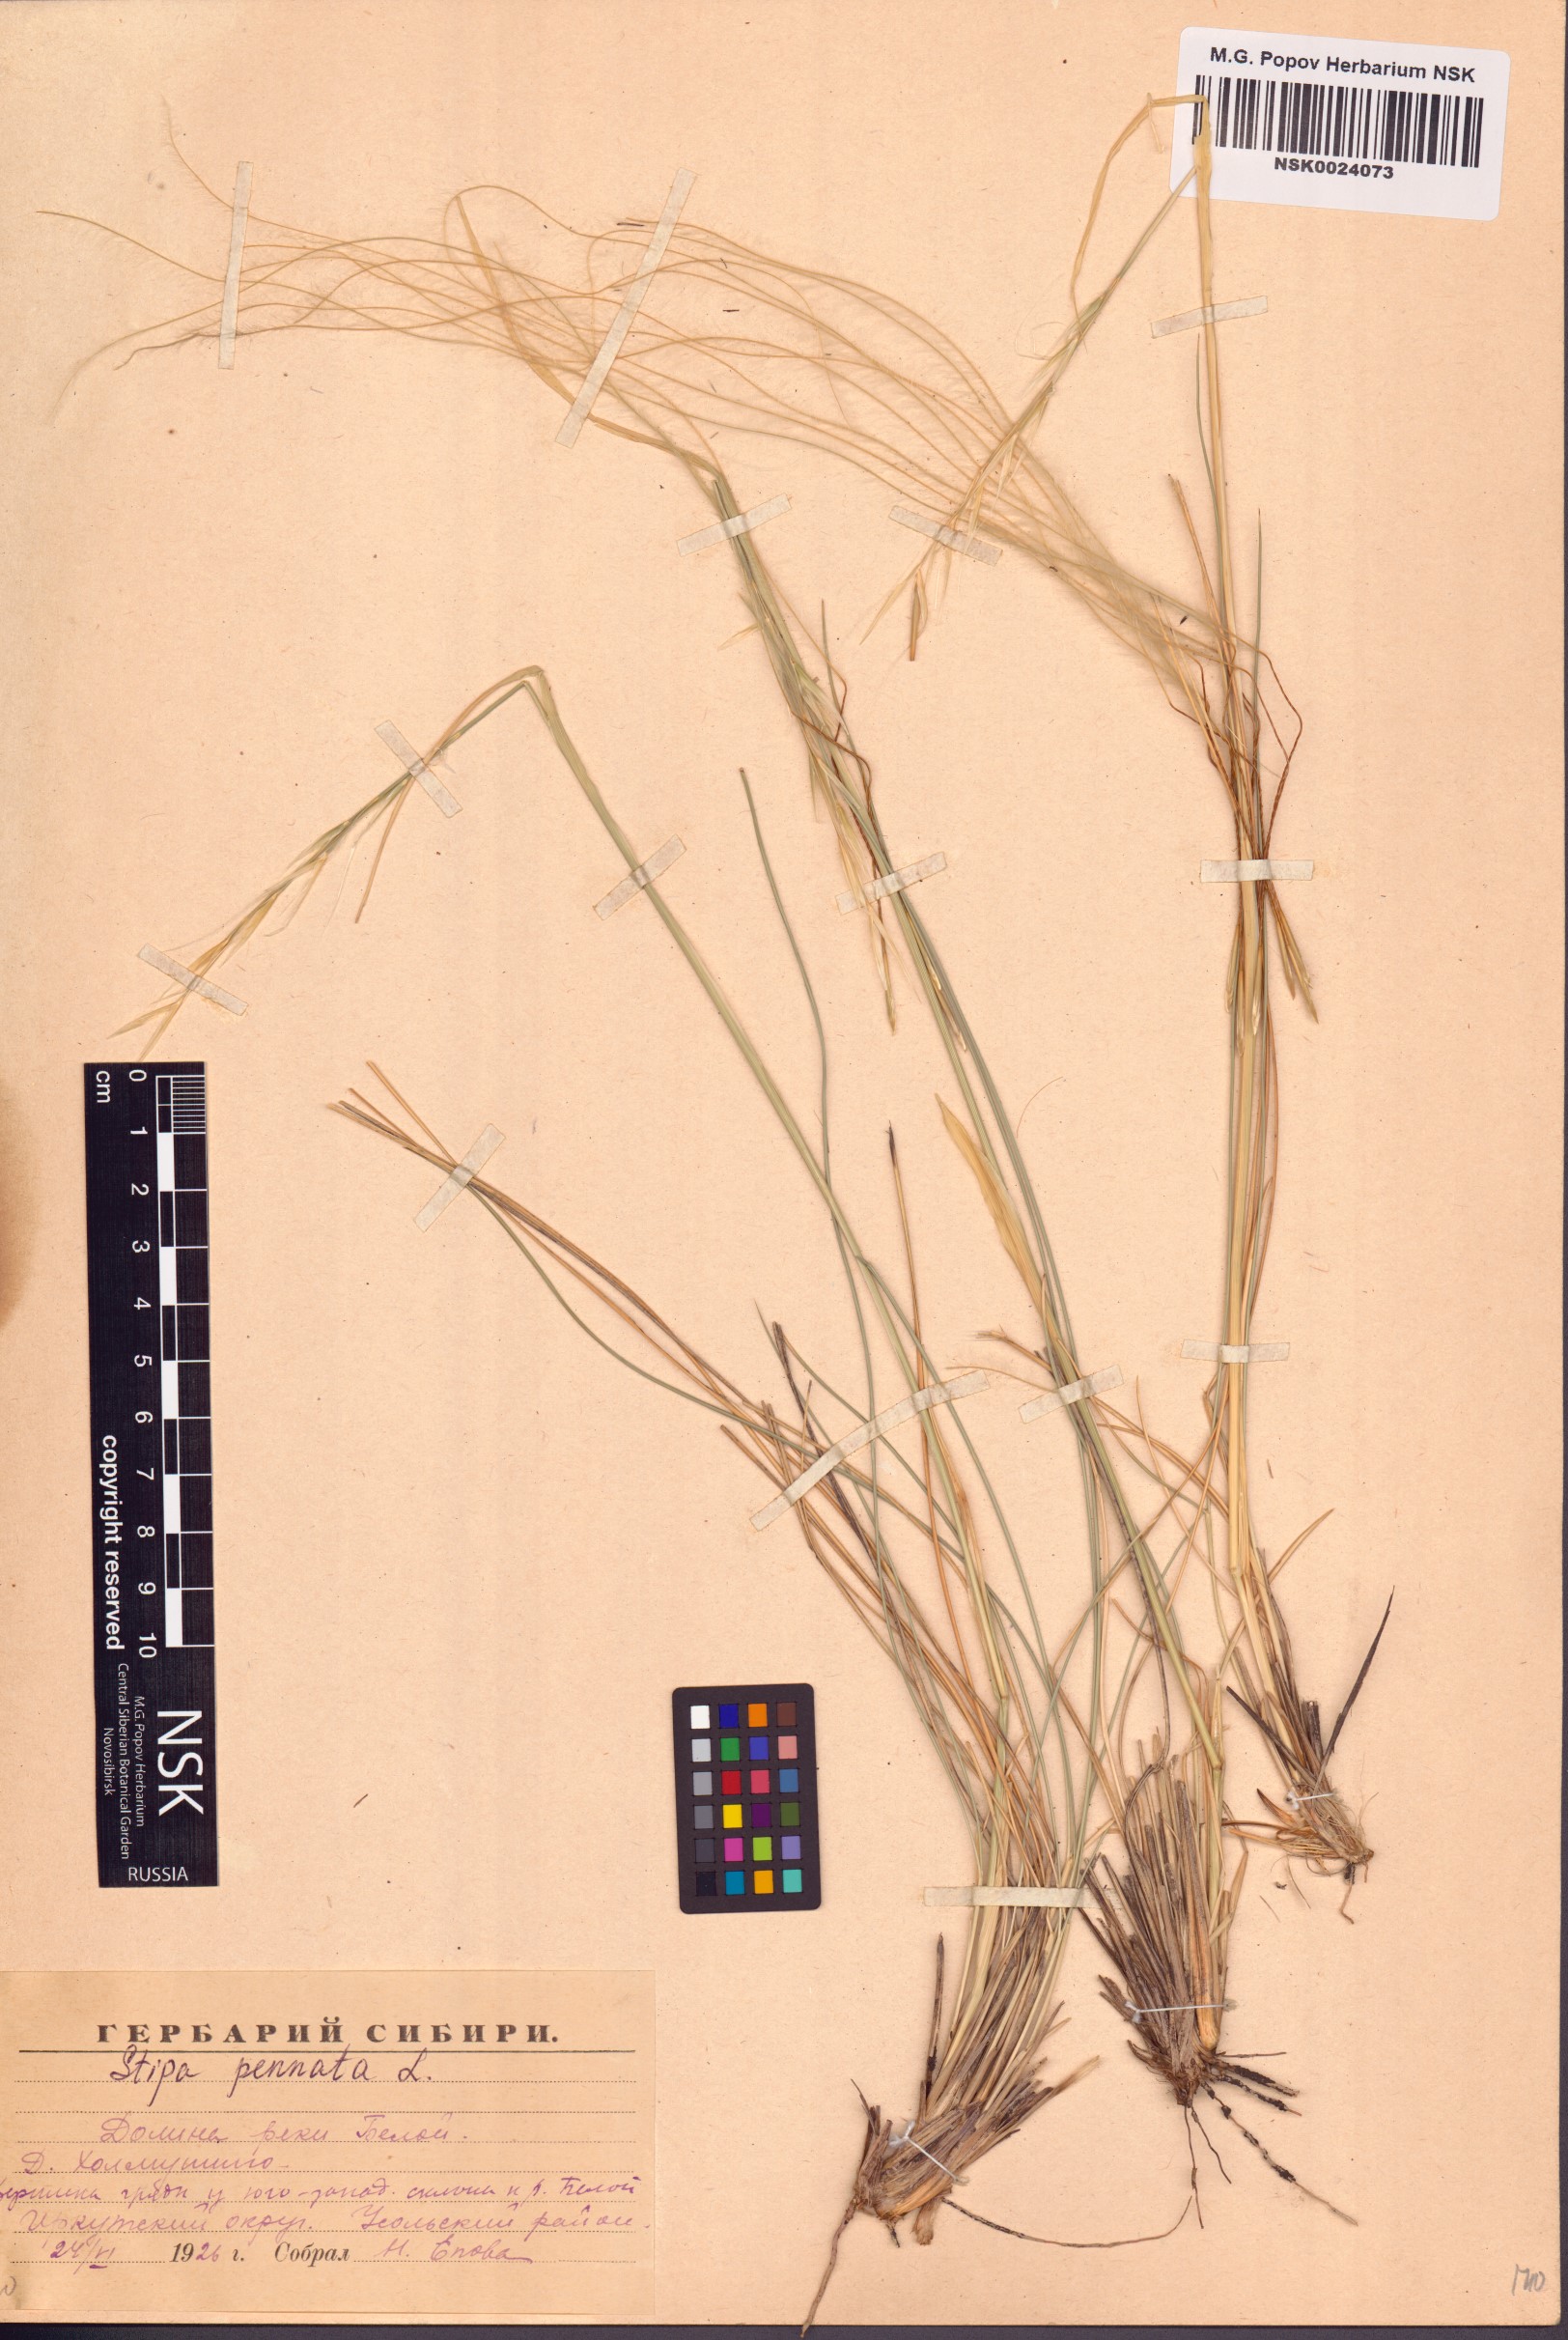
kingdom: Plantae
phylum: Tracheophyta
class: Liliopsida
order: Poales
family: Poaceae
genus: Stipa
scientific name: Stipa pennata
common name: European feather grass
